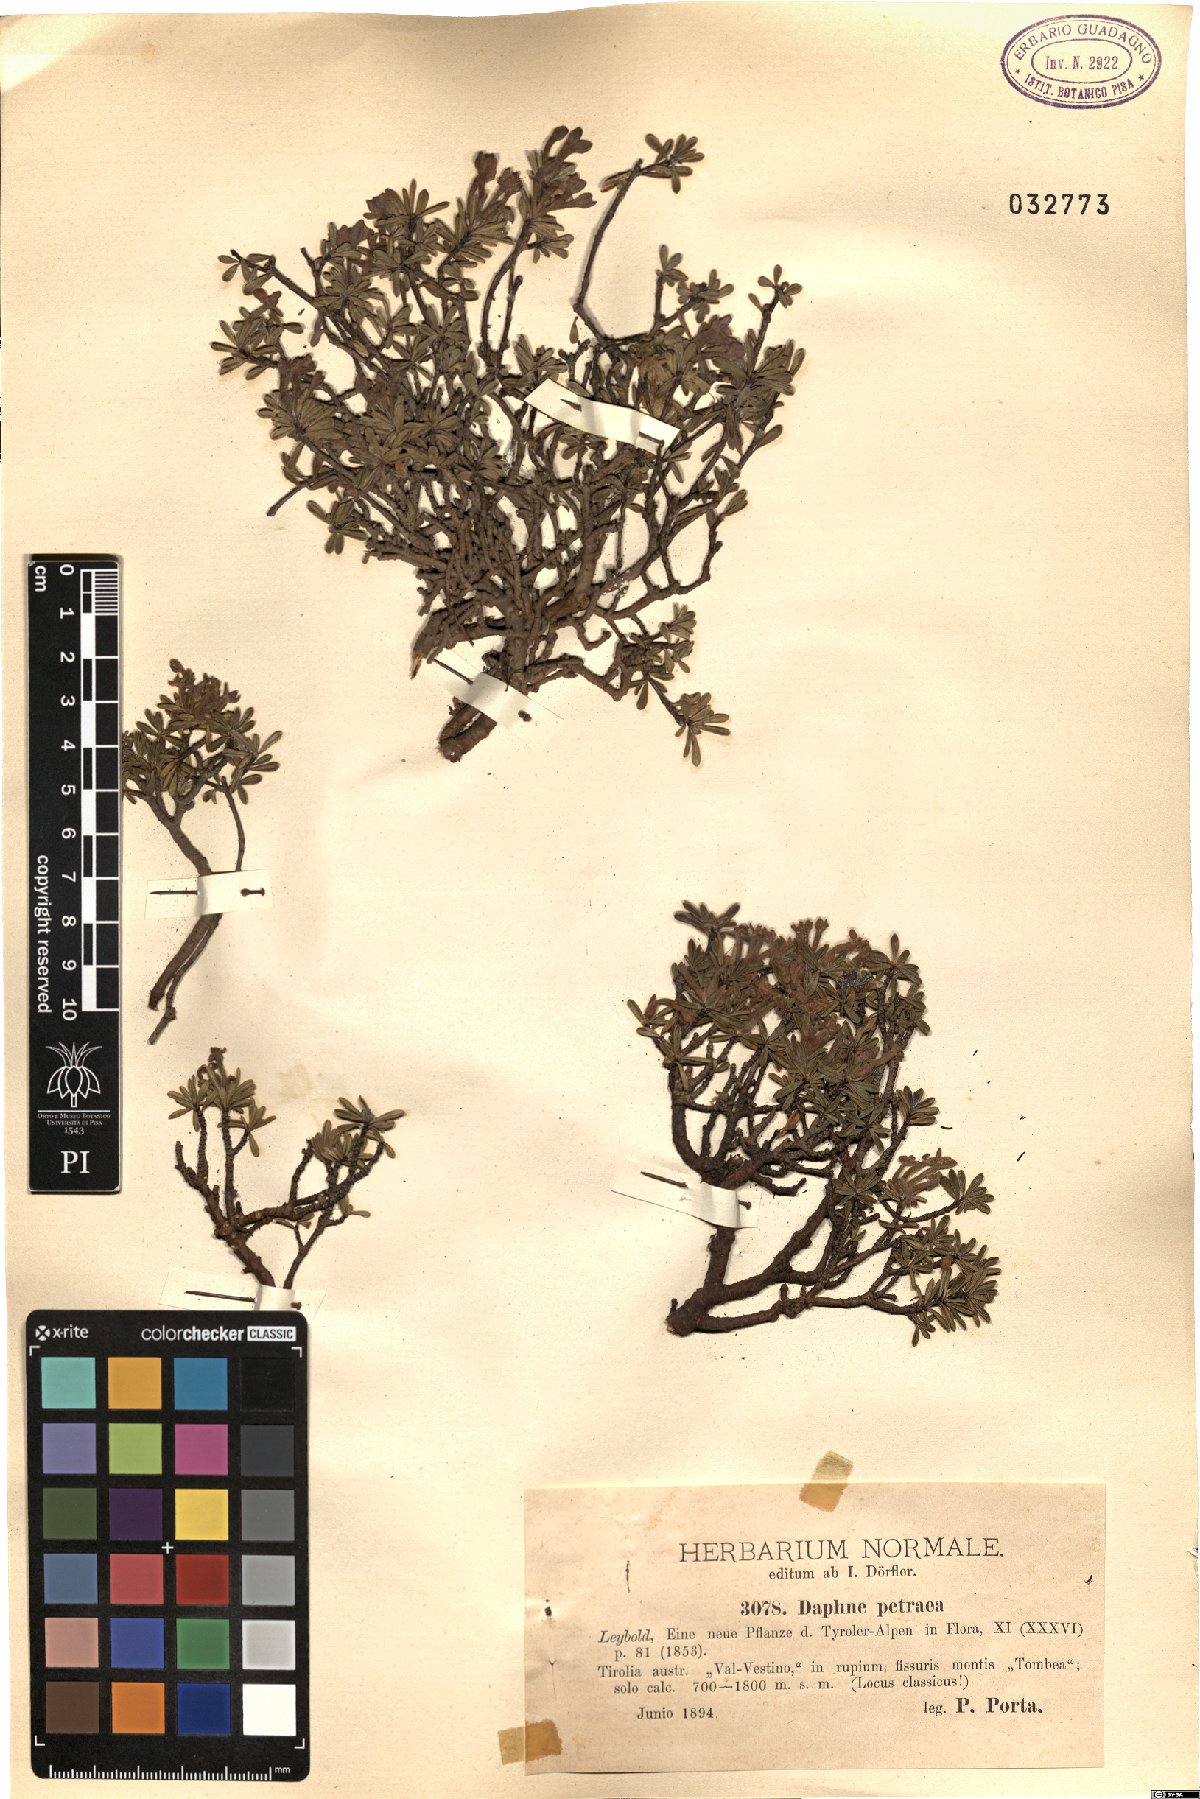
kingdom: Plantae
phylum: Tracheophyta
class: Magnoliopsida
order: Malvales
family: Thymelaeaceae
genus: Daphne
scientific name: Daphne petraea
